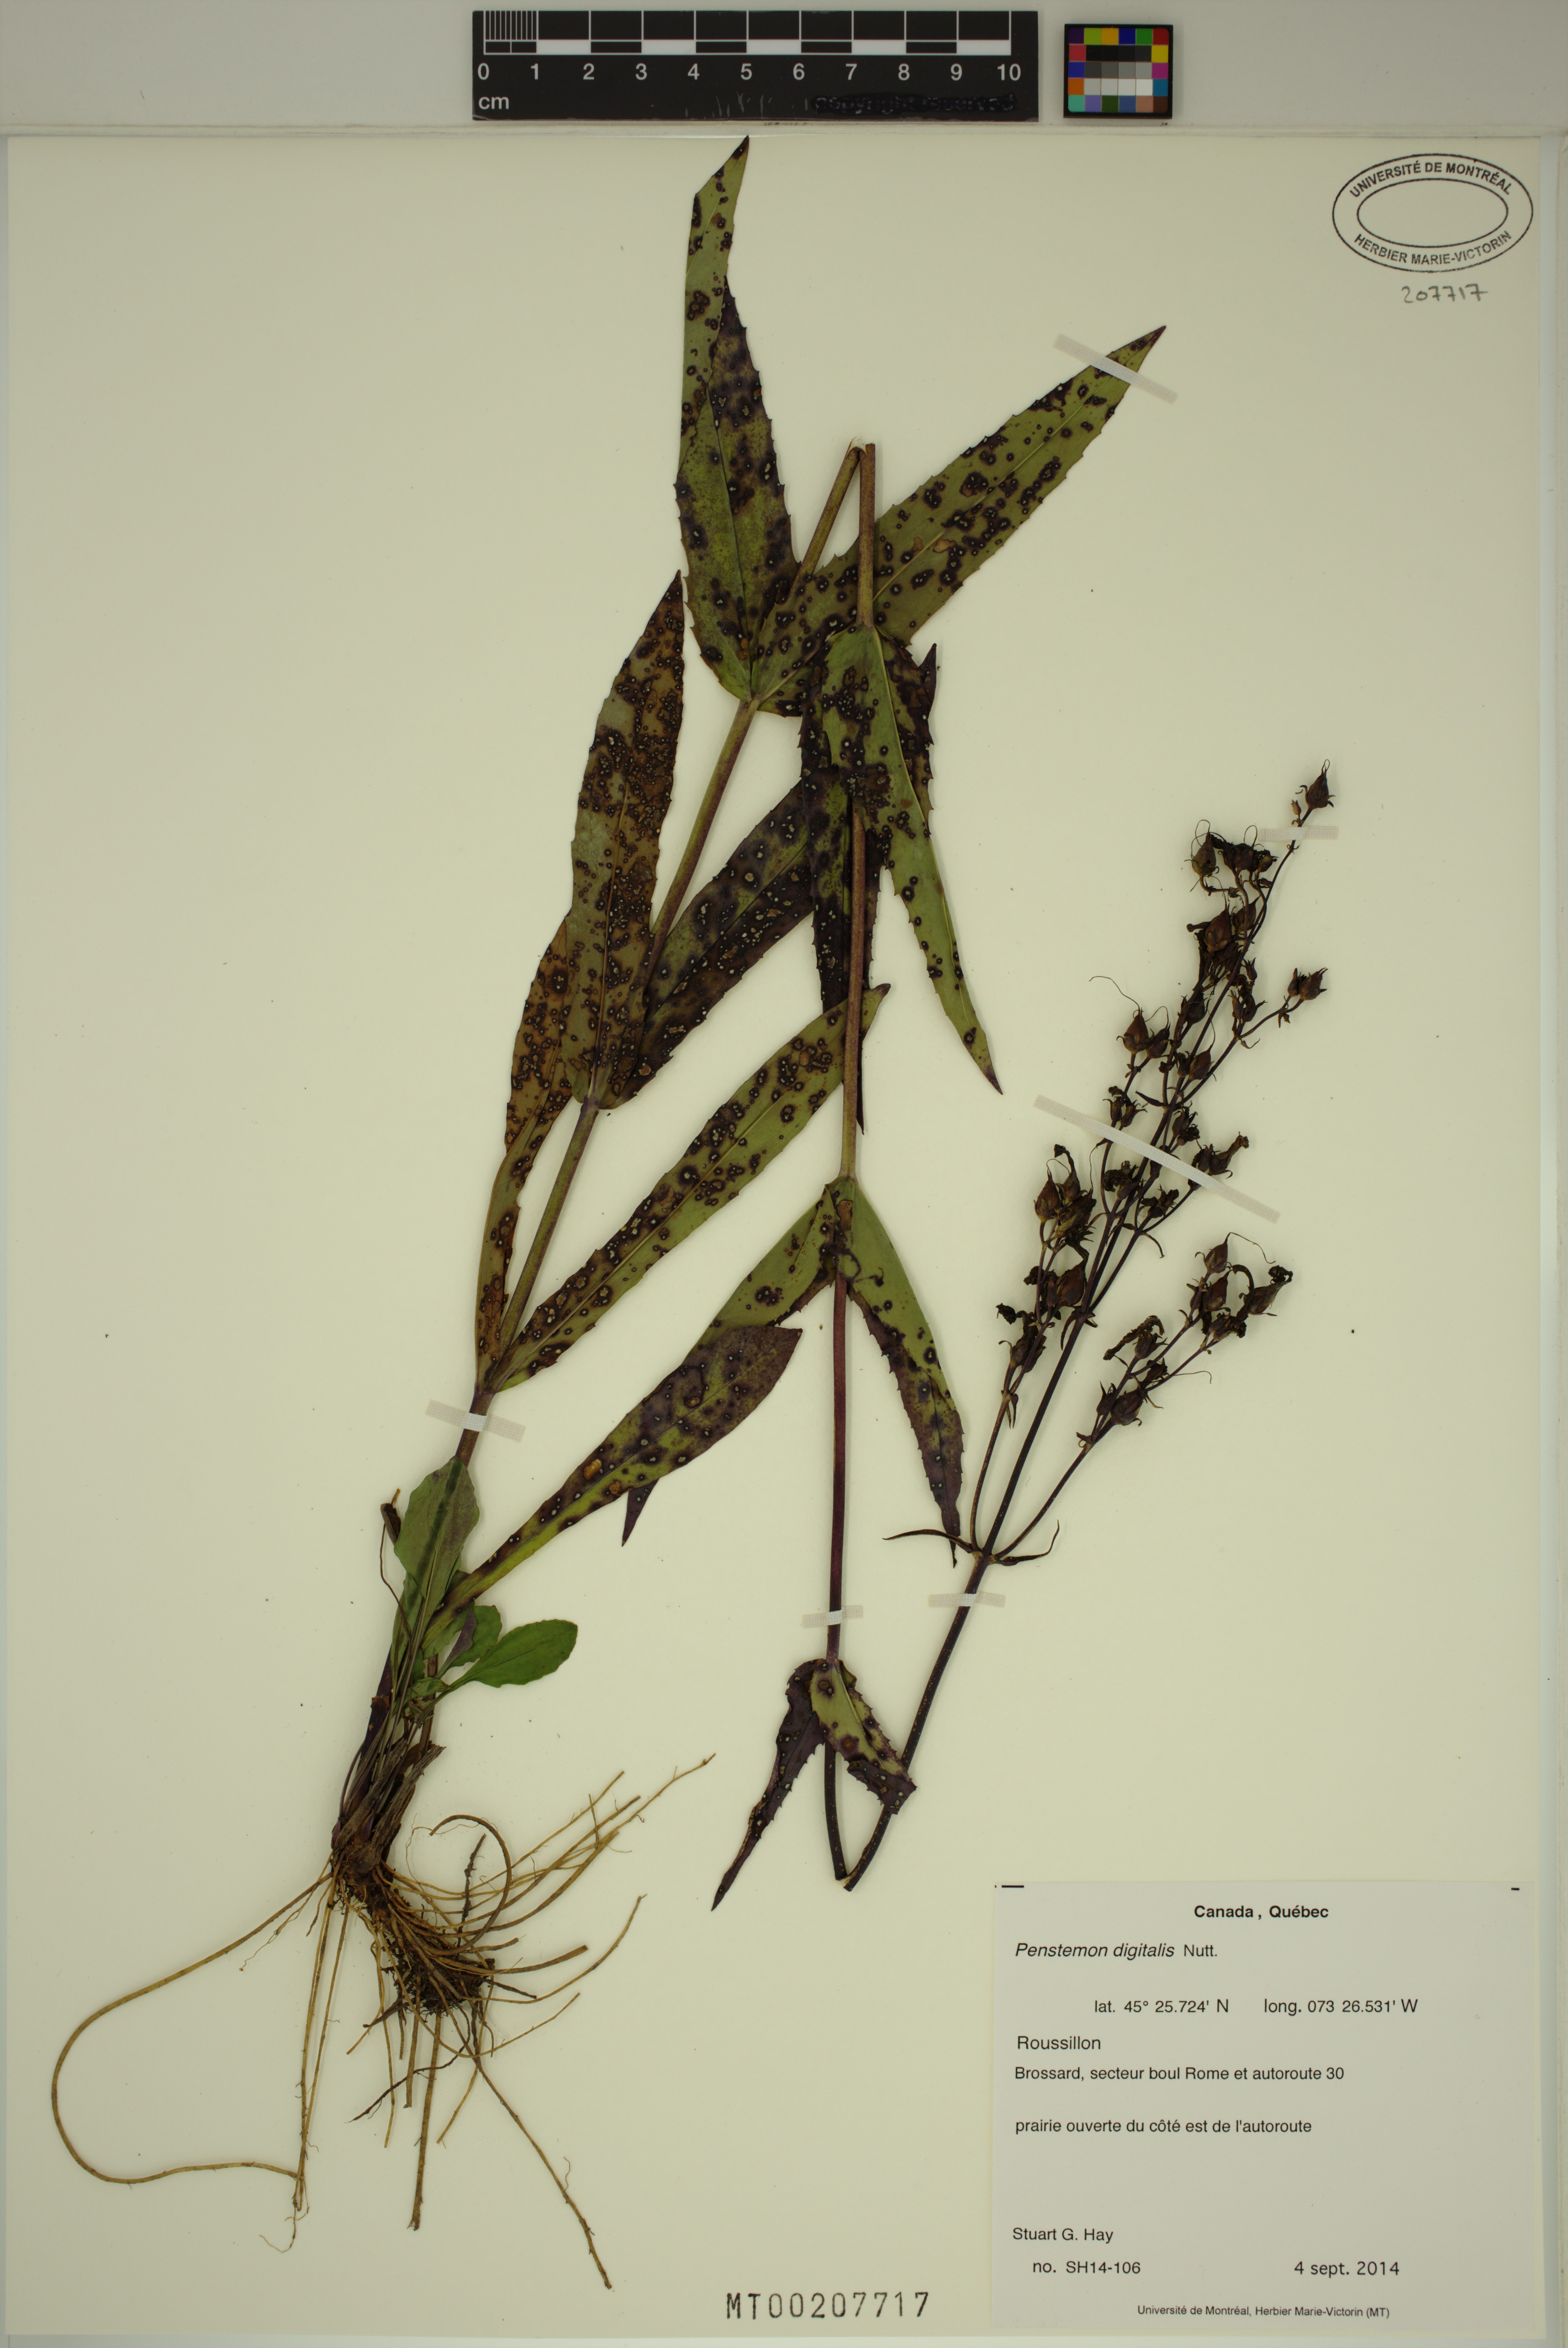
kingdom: Plantae
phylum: Tracheophyta
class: Magnoliopsida
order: Lamiales
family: Plantaginaceae
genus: Penstemon
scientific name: Penstemon digitalis
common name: Foxglove beardtongue
